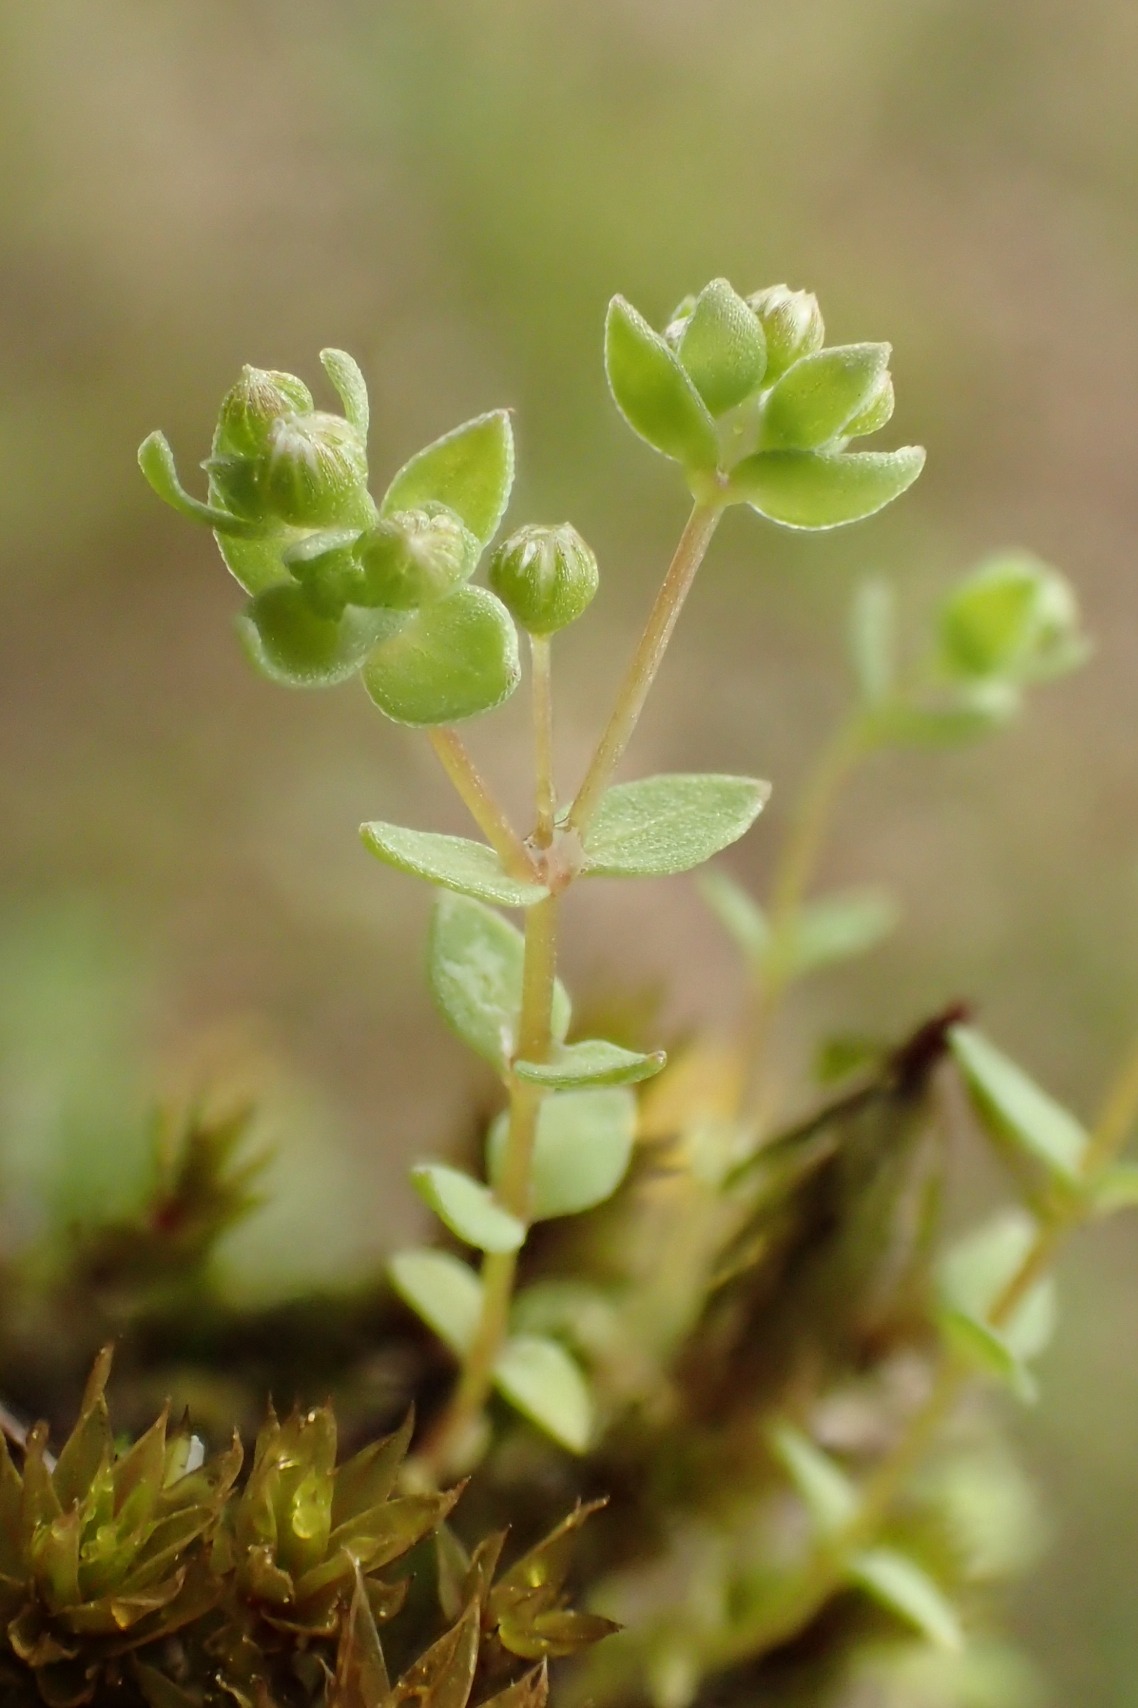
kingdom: Plantae
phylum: Tracheophyta
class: Magnoliopsida
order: Malpighiales
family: Linaceae
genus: Radiola
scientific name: Radiola linoides
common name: Tusindfrø
